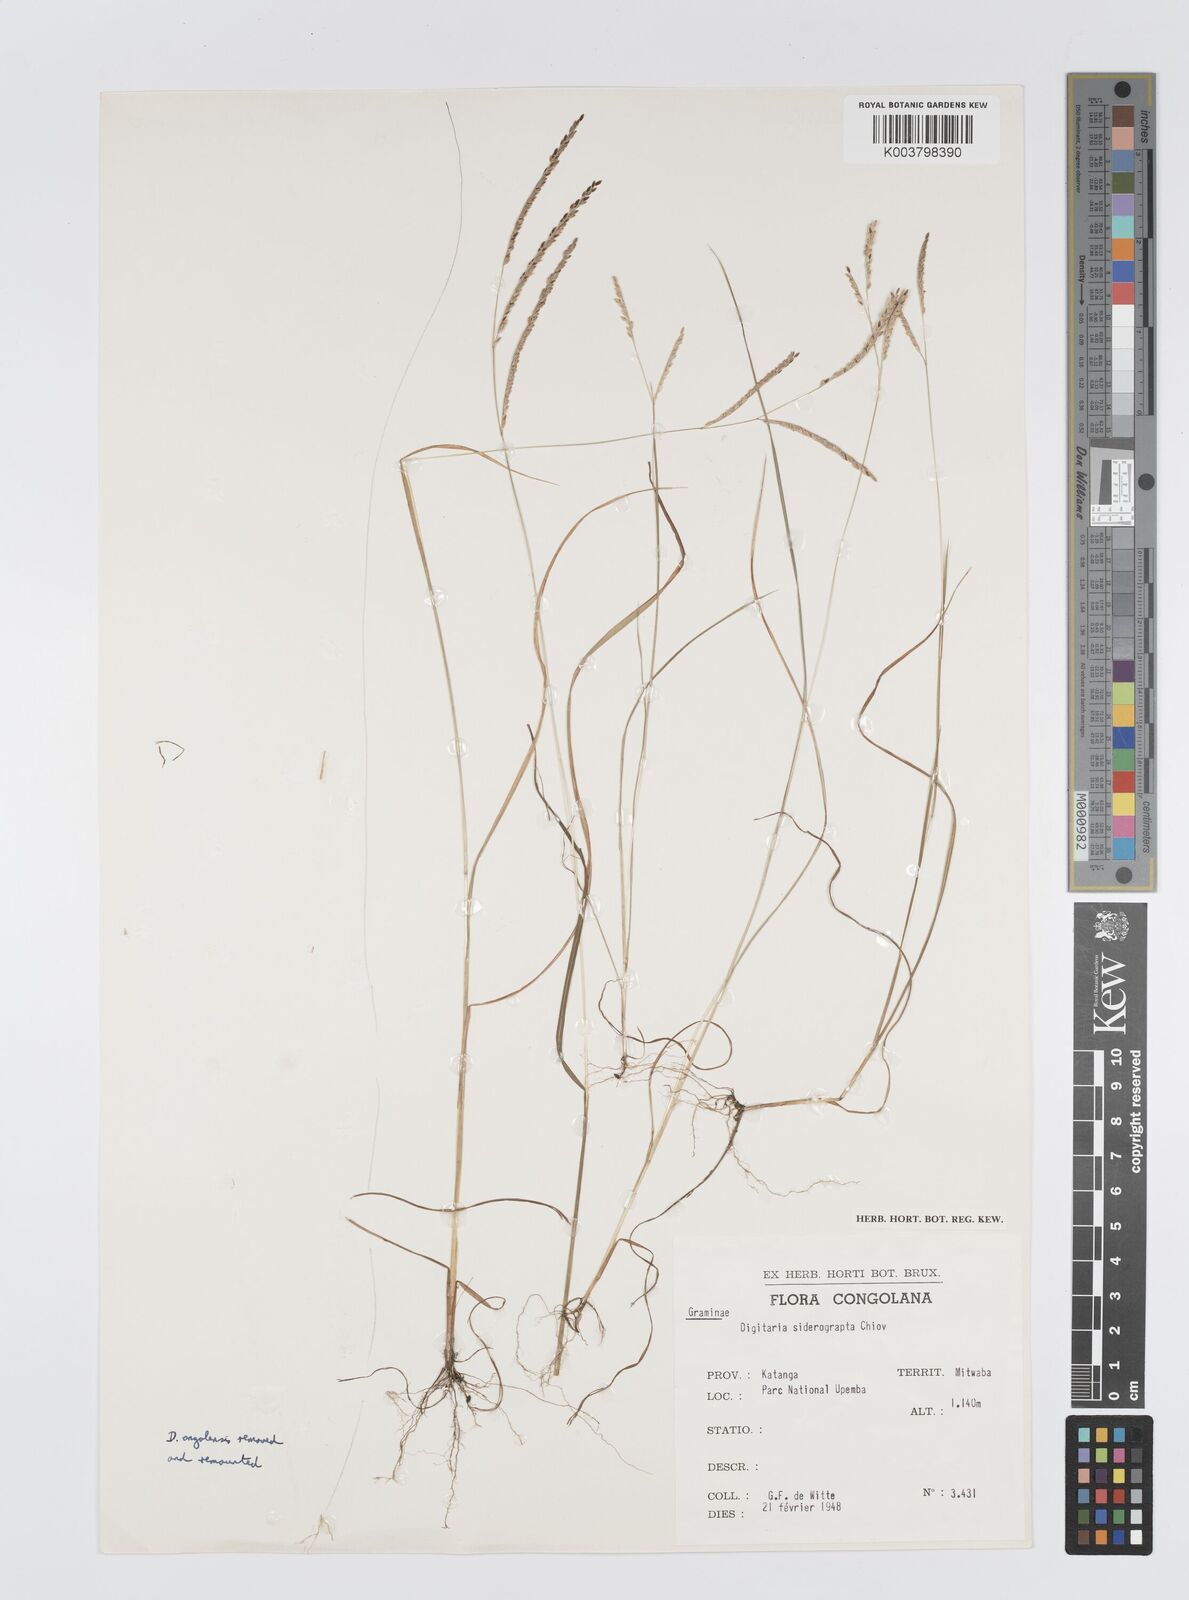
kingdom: Plantae
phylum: Tracheophyta
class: Liliopsida
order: Poales
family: Poaceae
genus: Digitaria
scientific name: Digitaria siderograpta
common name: Crab grass
